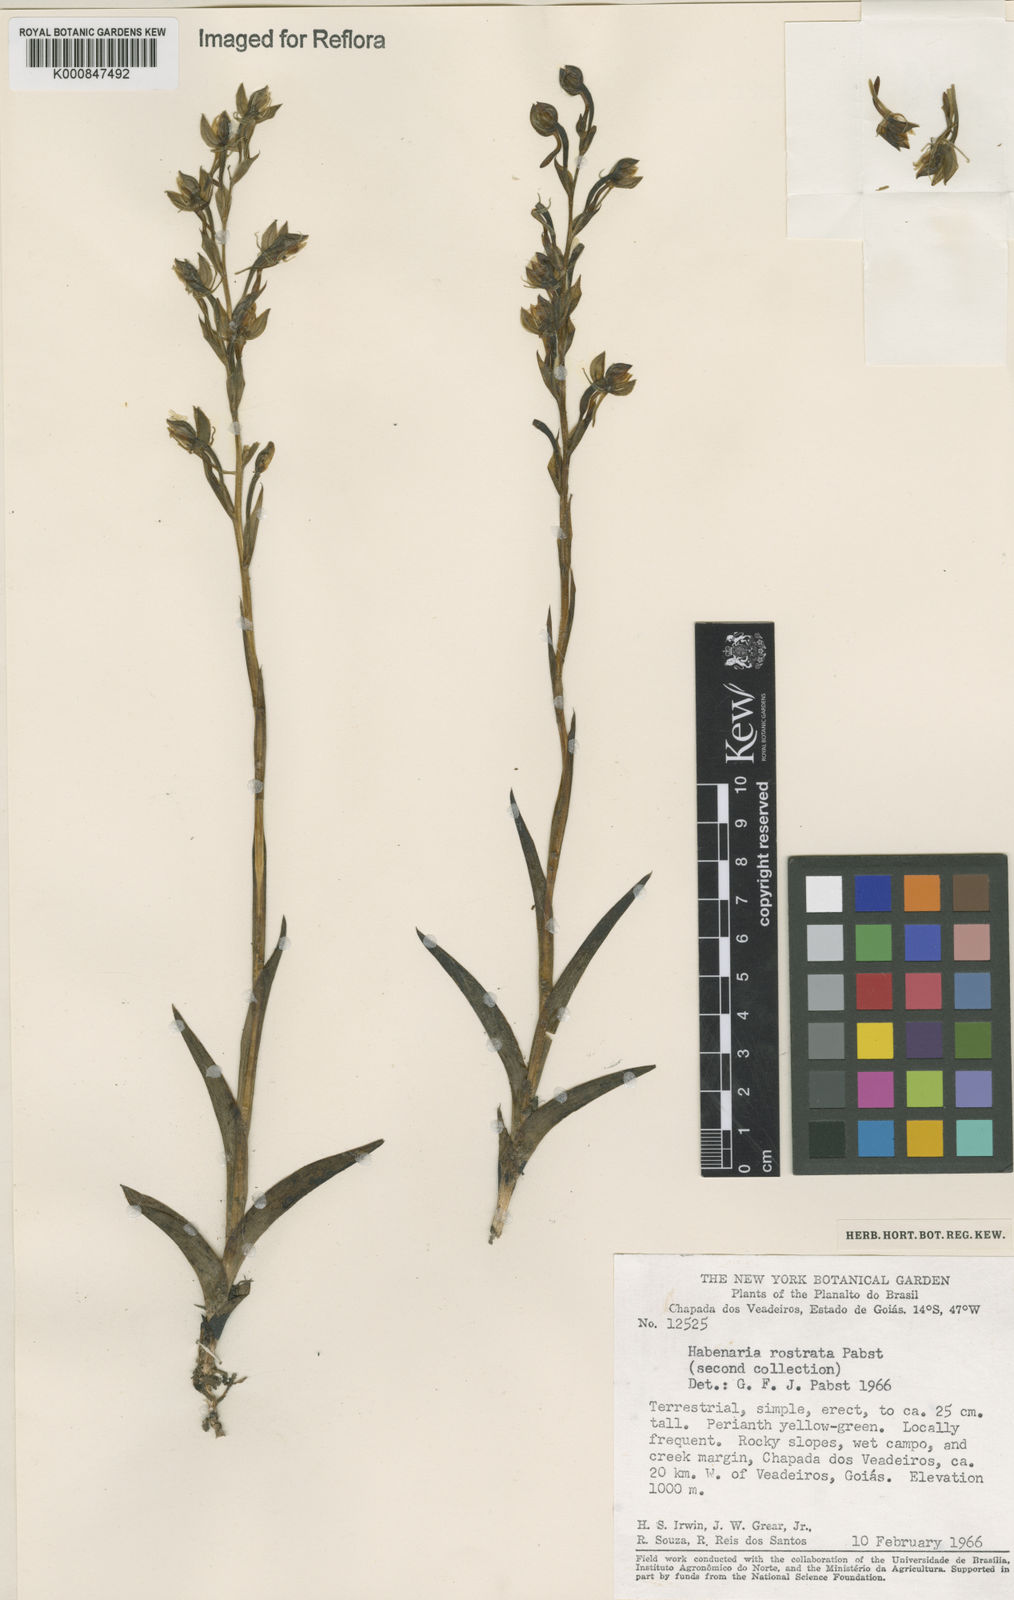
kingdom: Plantae
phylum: Tracheophyta
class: Liliopsida
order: Asparagales
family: Orchidaceae
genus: Habenaria
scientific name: Habenaria magniscutata
